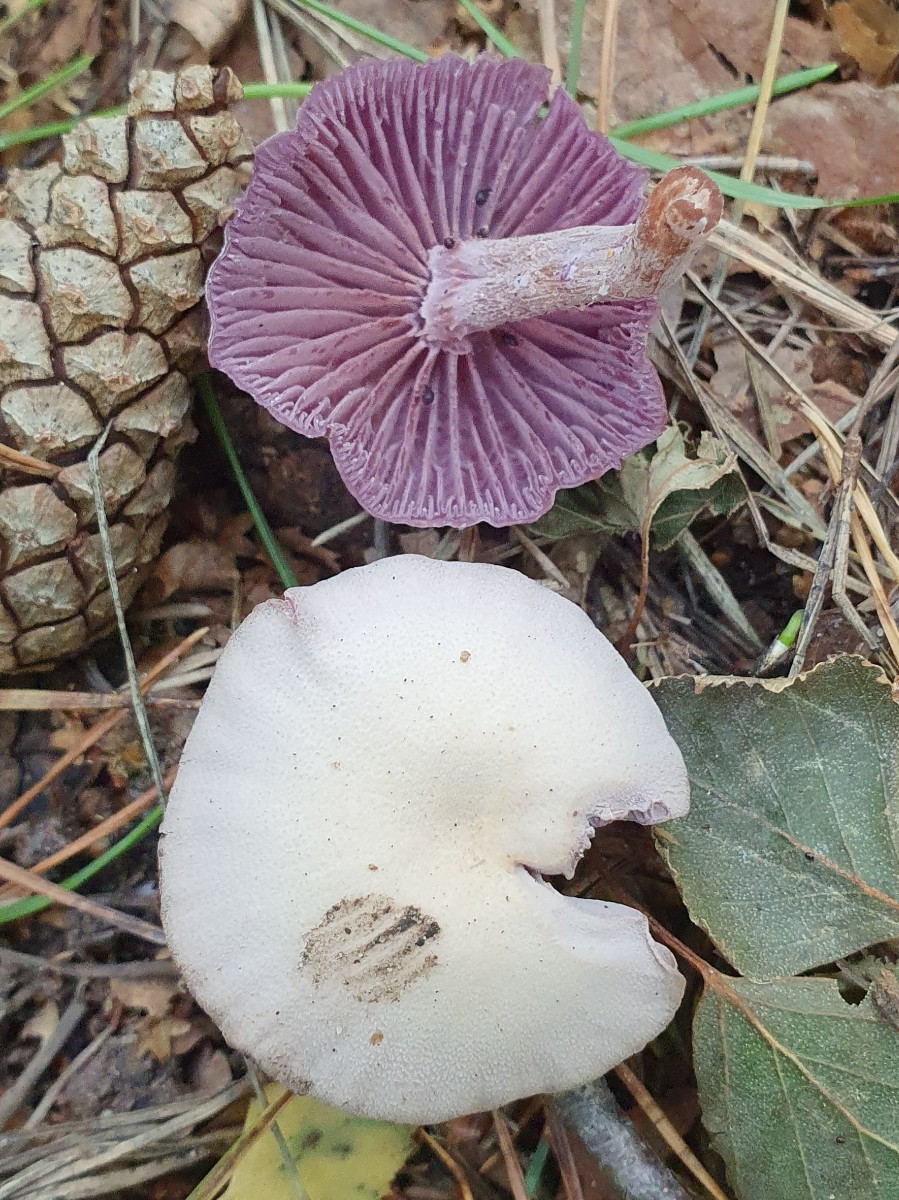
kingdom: Fungi
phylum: Basidiomycota
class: Agaricomycetes
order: Agaricales
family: Hydnangiaceae
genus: Laccaria
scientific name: Laccaria amethystina
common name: violet ametysthat
